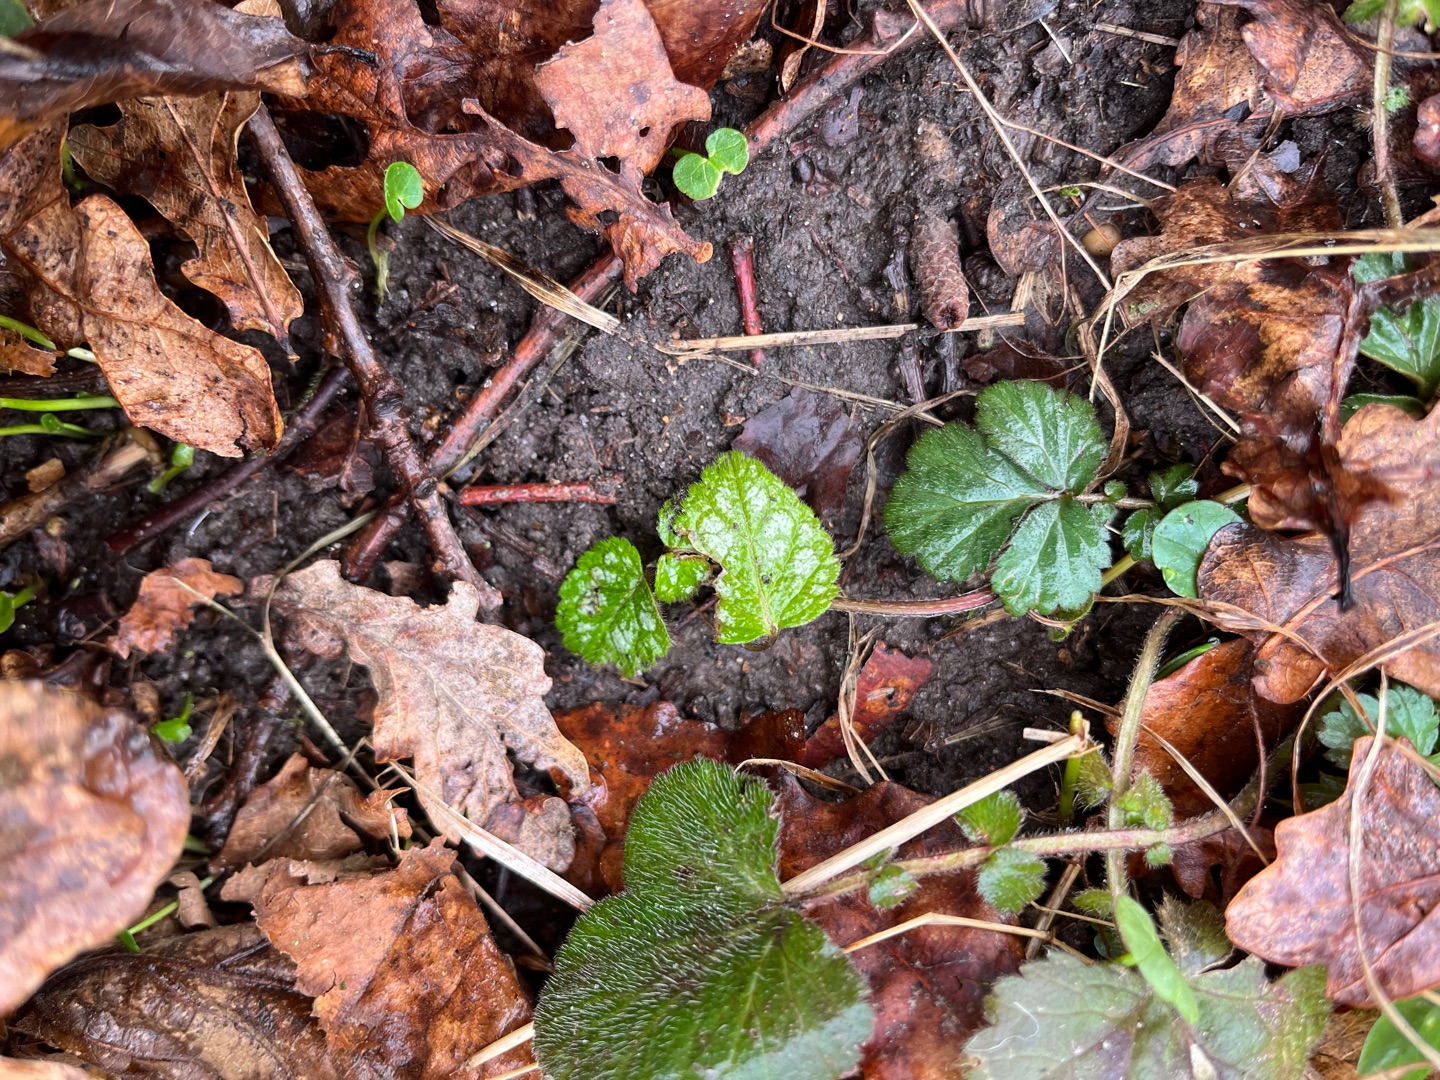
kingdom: Plantae
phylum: Tracheophyta
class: Magnoliopsida
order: Lamiales
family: Lamiaceae
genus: Lamium
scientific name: Lamium galeobdolon
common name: Guldnælde
